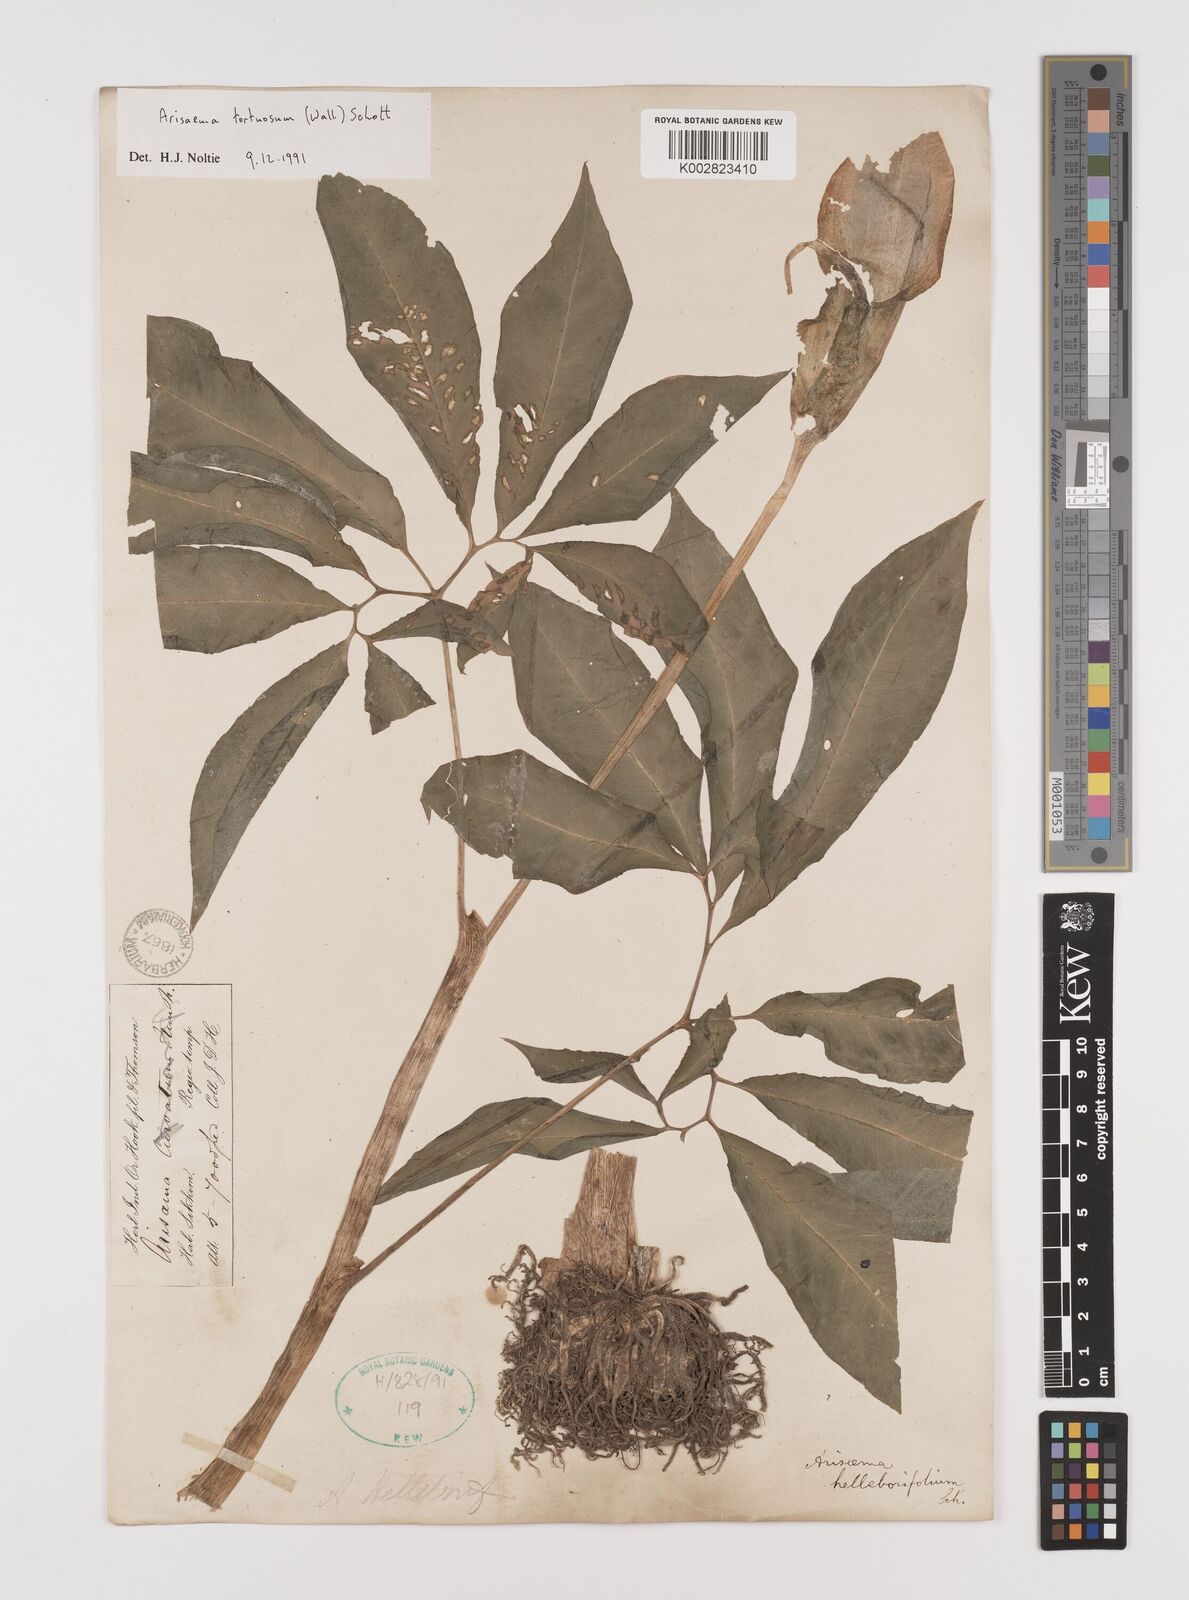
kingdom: Plantae
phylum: Tracheophyta
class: Liliopsida
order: Alismatales
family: Araceae
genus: Arisaema
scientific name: Arisaema tortuosum
